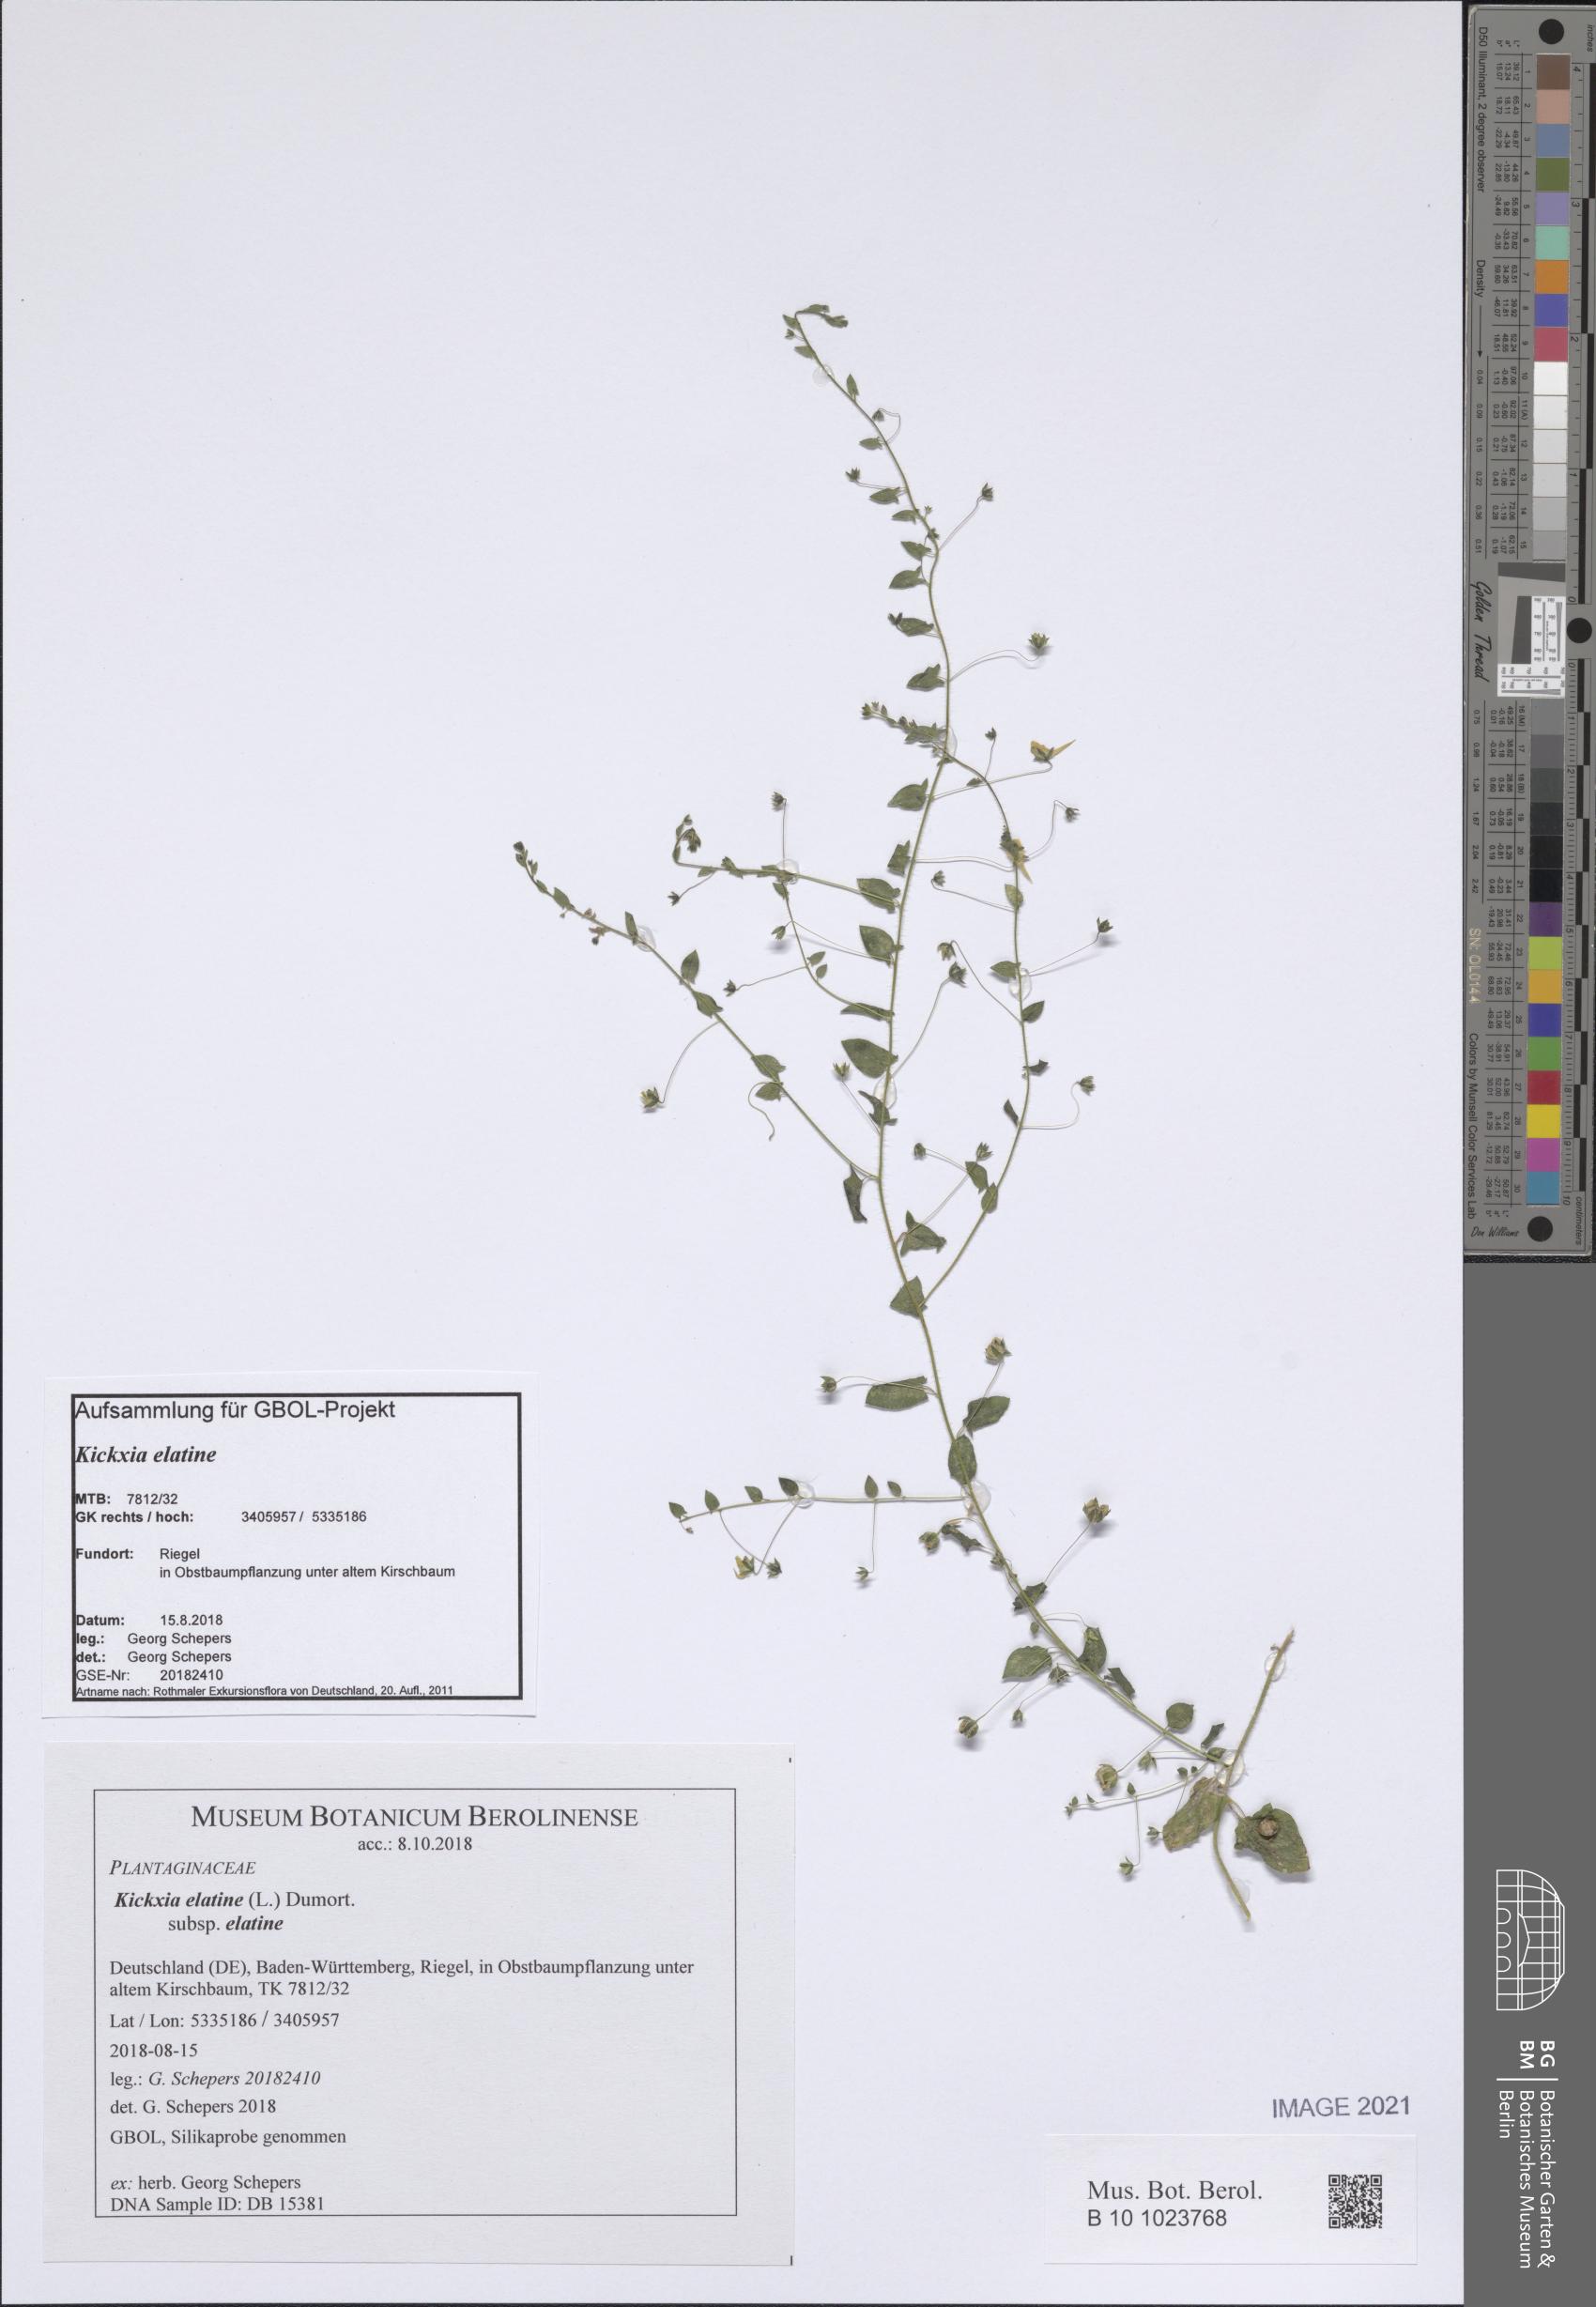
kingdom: Plantae
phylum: Tracheophyta
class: Magnoliopsida
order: Lamiales
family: Plantaginaceae
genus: Kickxia
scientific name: Kickxia elatine
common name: Sharp-leaved fluellen
